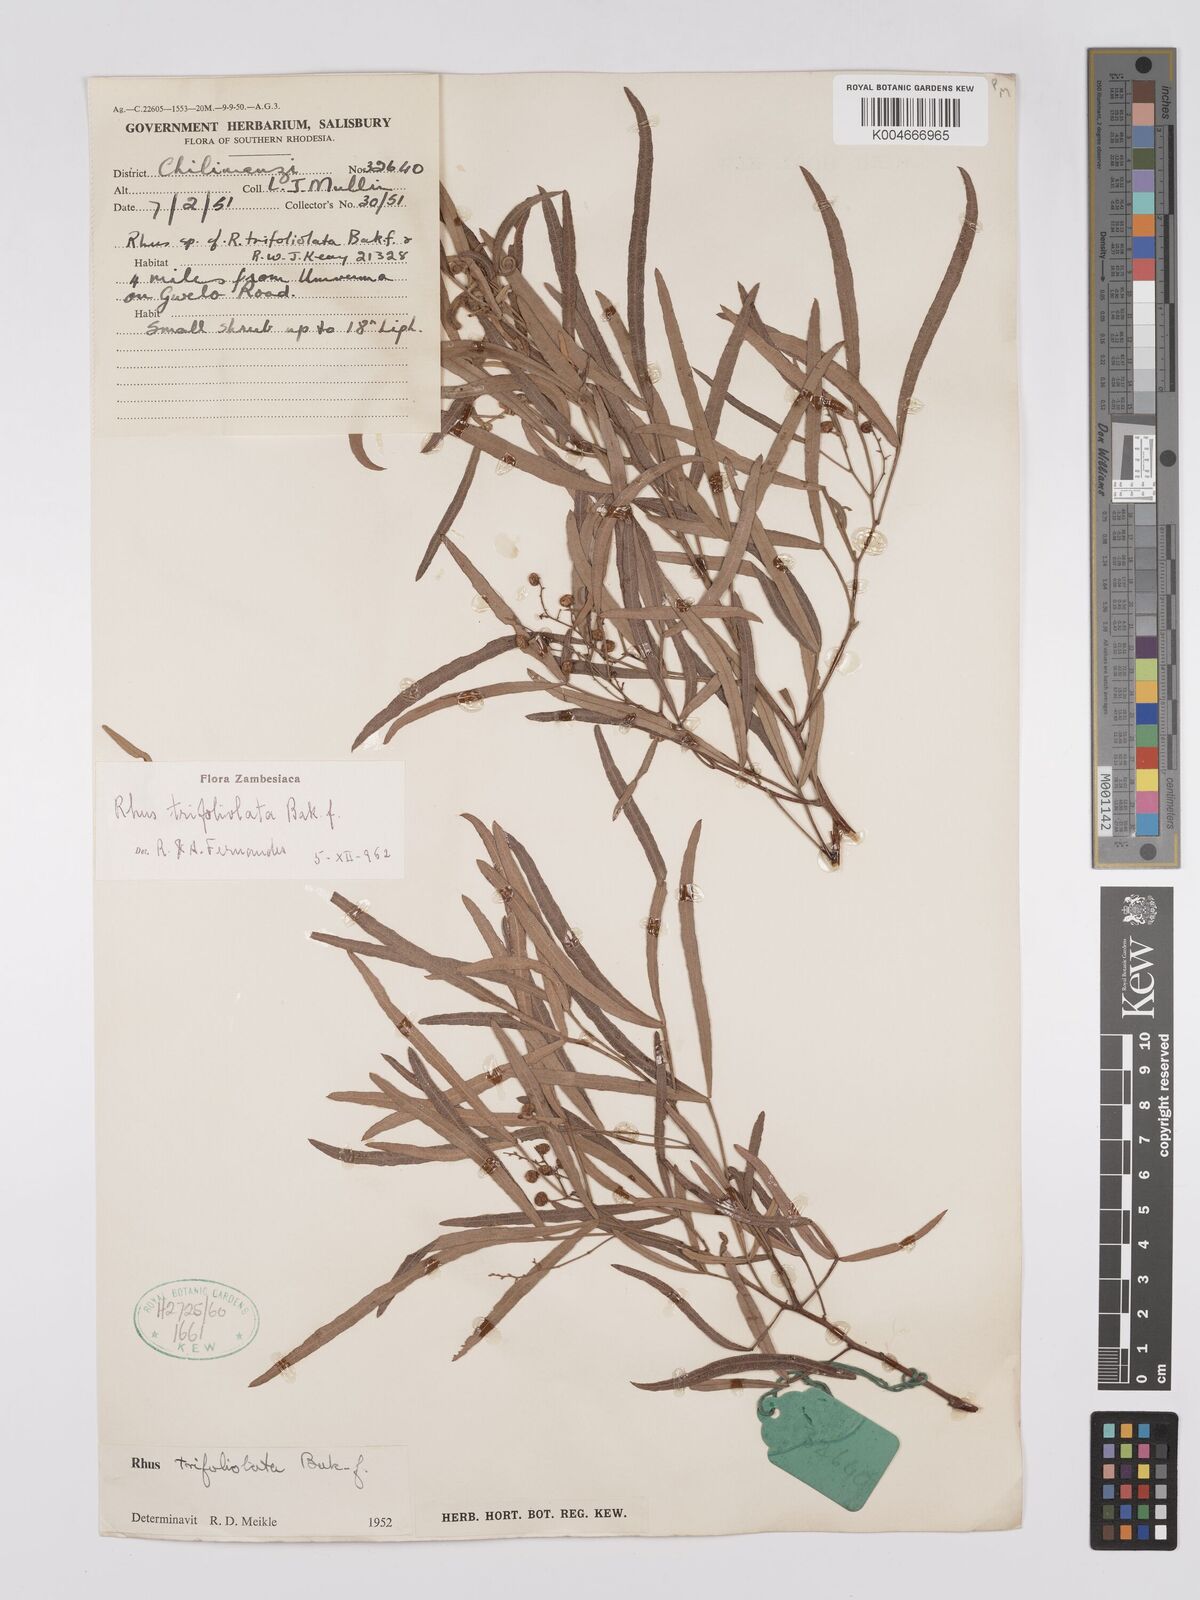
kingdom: Plantae
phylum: Tracheophyta
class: Magnoliopsida
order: Sapindales
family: Anacardiaceae
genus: Searsia
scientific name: Searsia magalismontana
